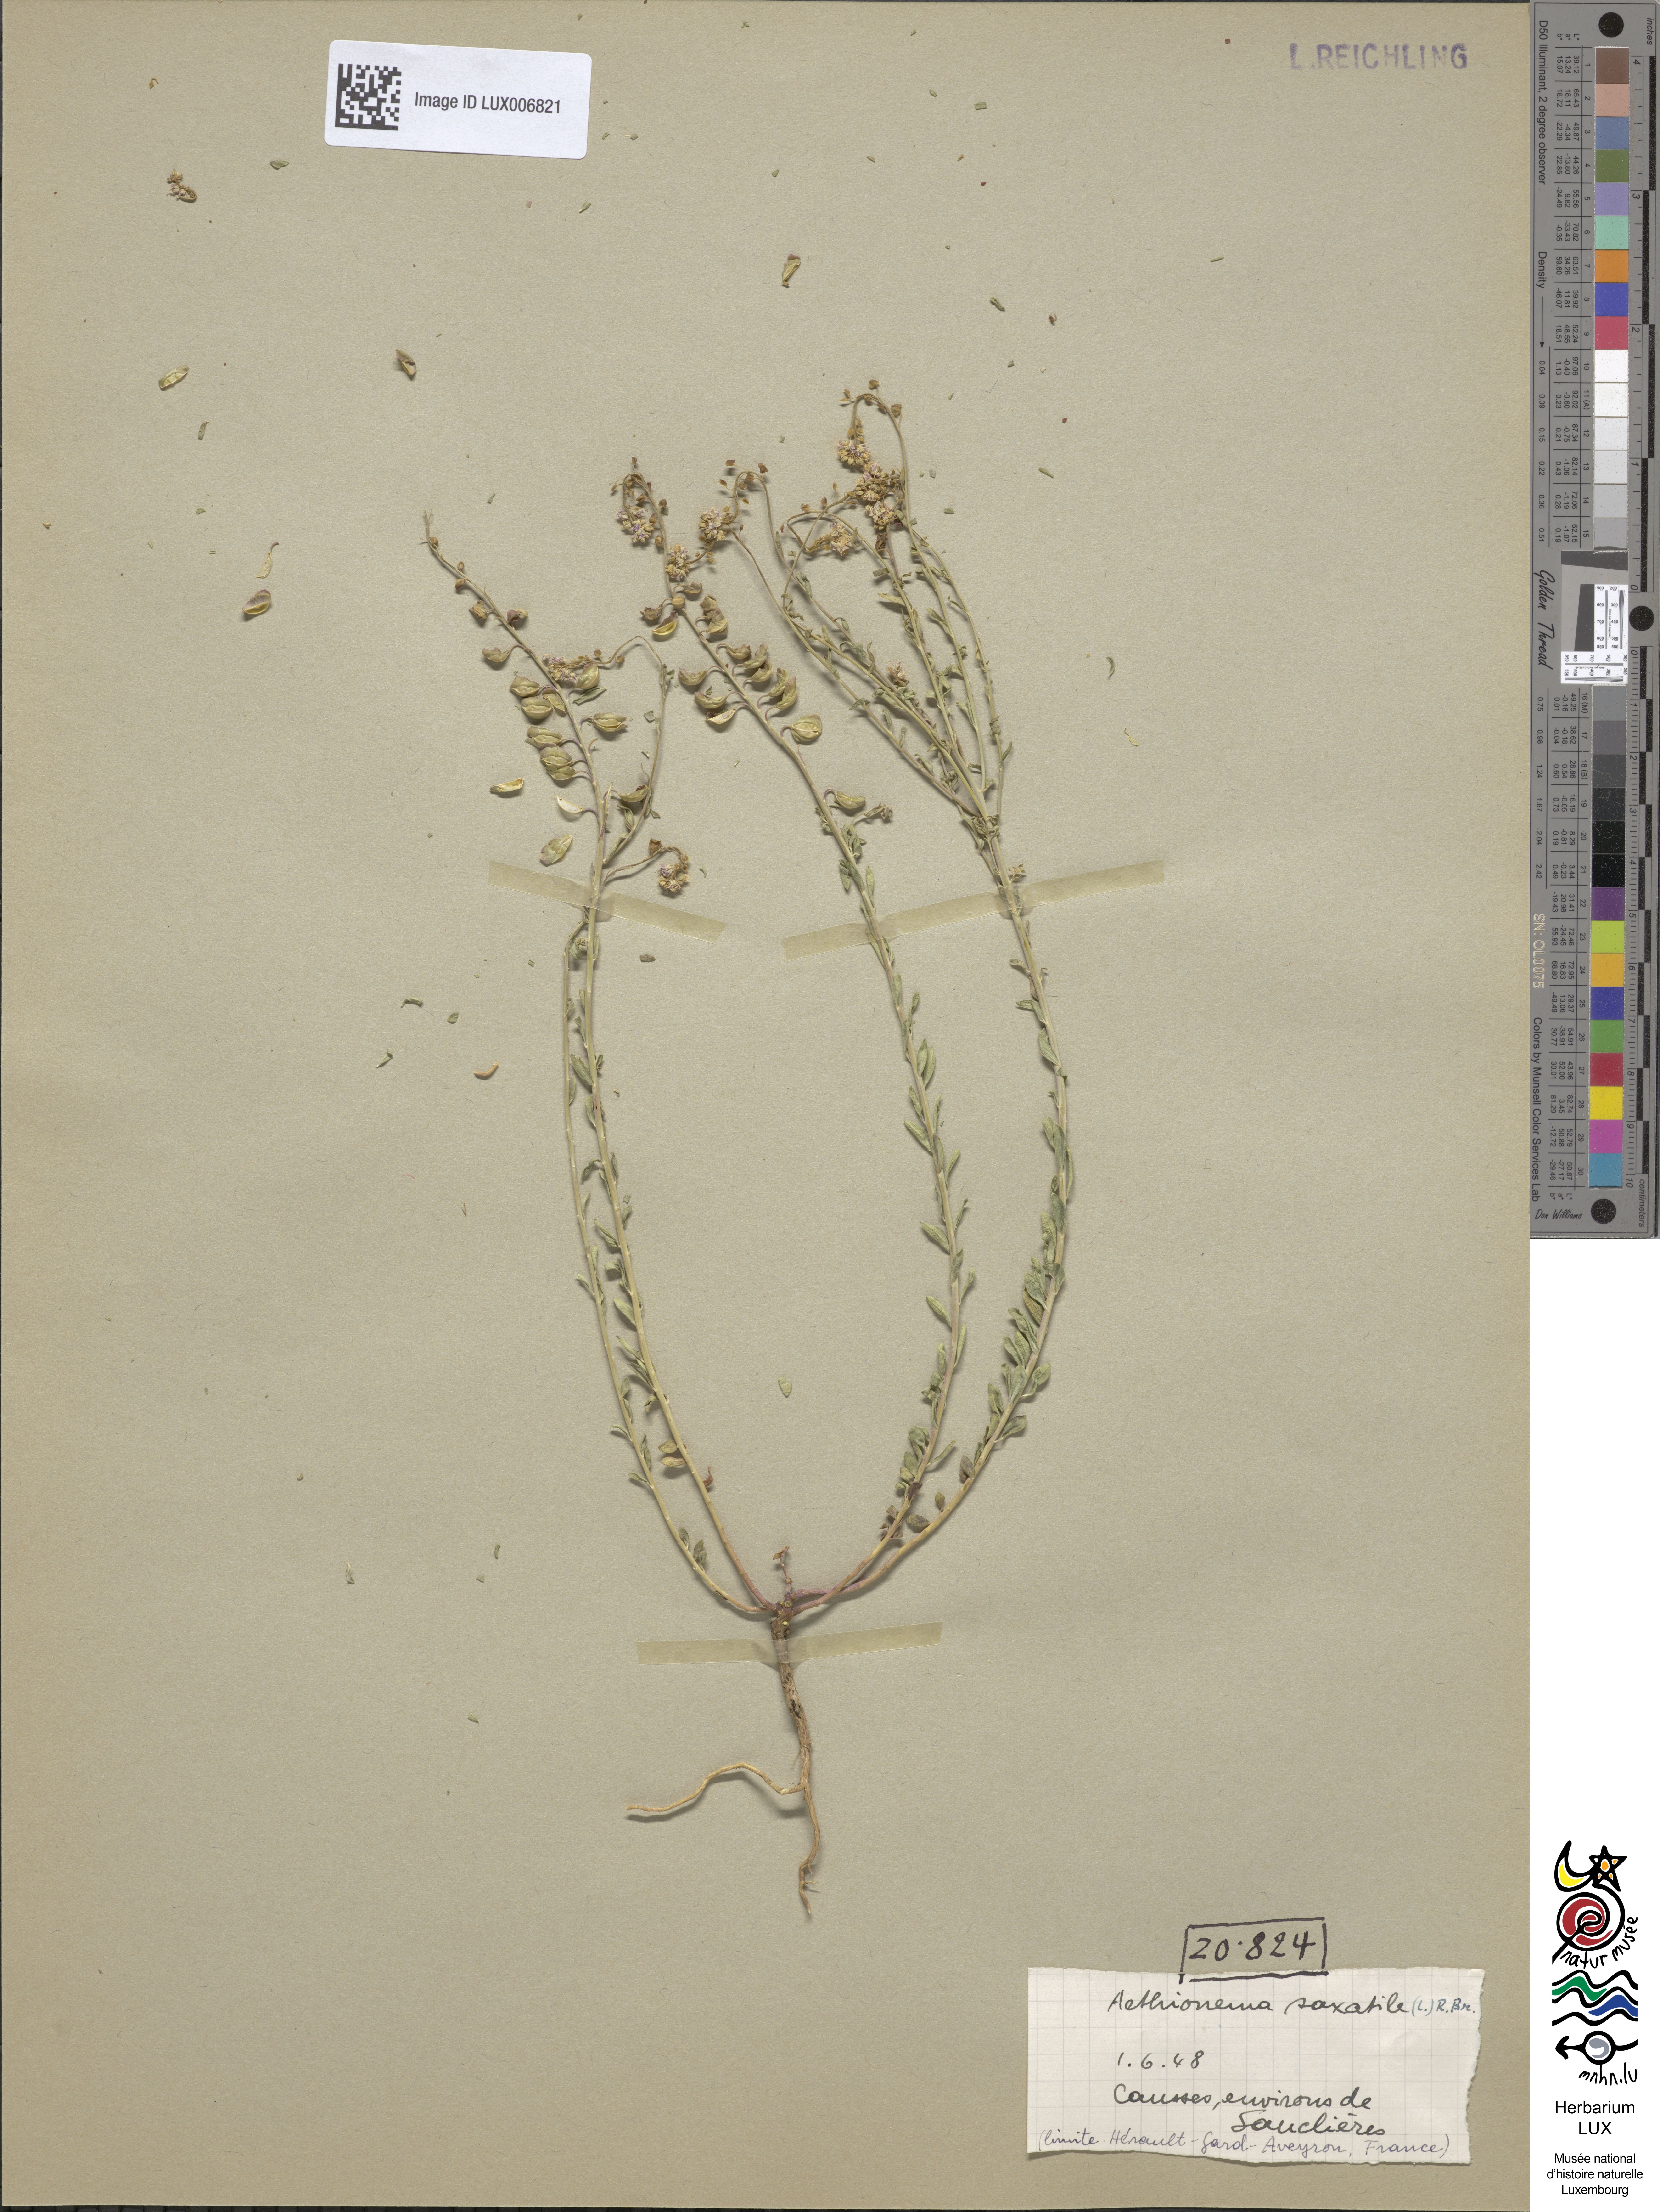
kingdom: Plantae
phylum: Tracheophyta
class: Magnoliopsida
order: Brassicales
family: Brassicaceae
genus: Aethionema
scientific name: Aethionema saxatile
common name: Burnt candytuft
